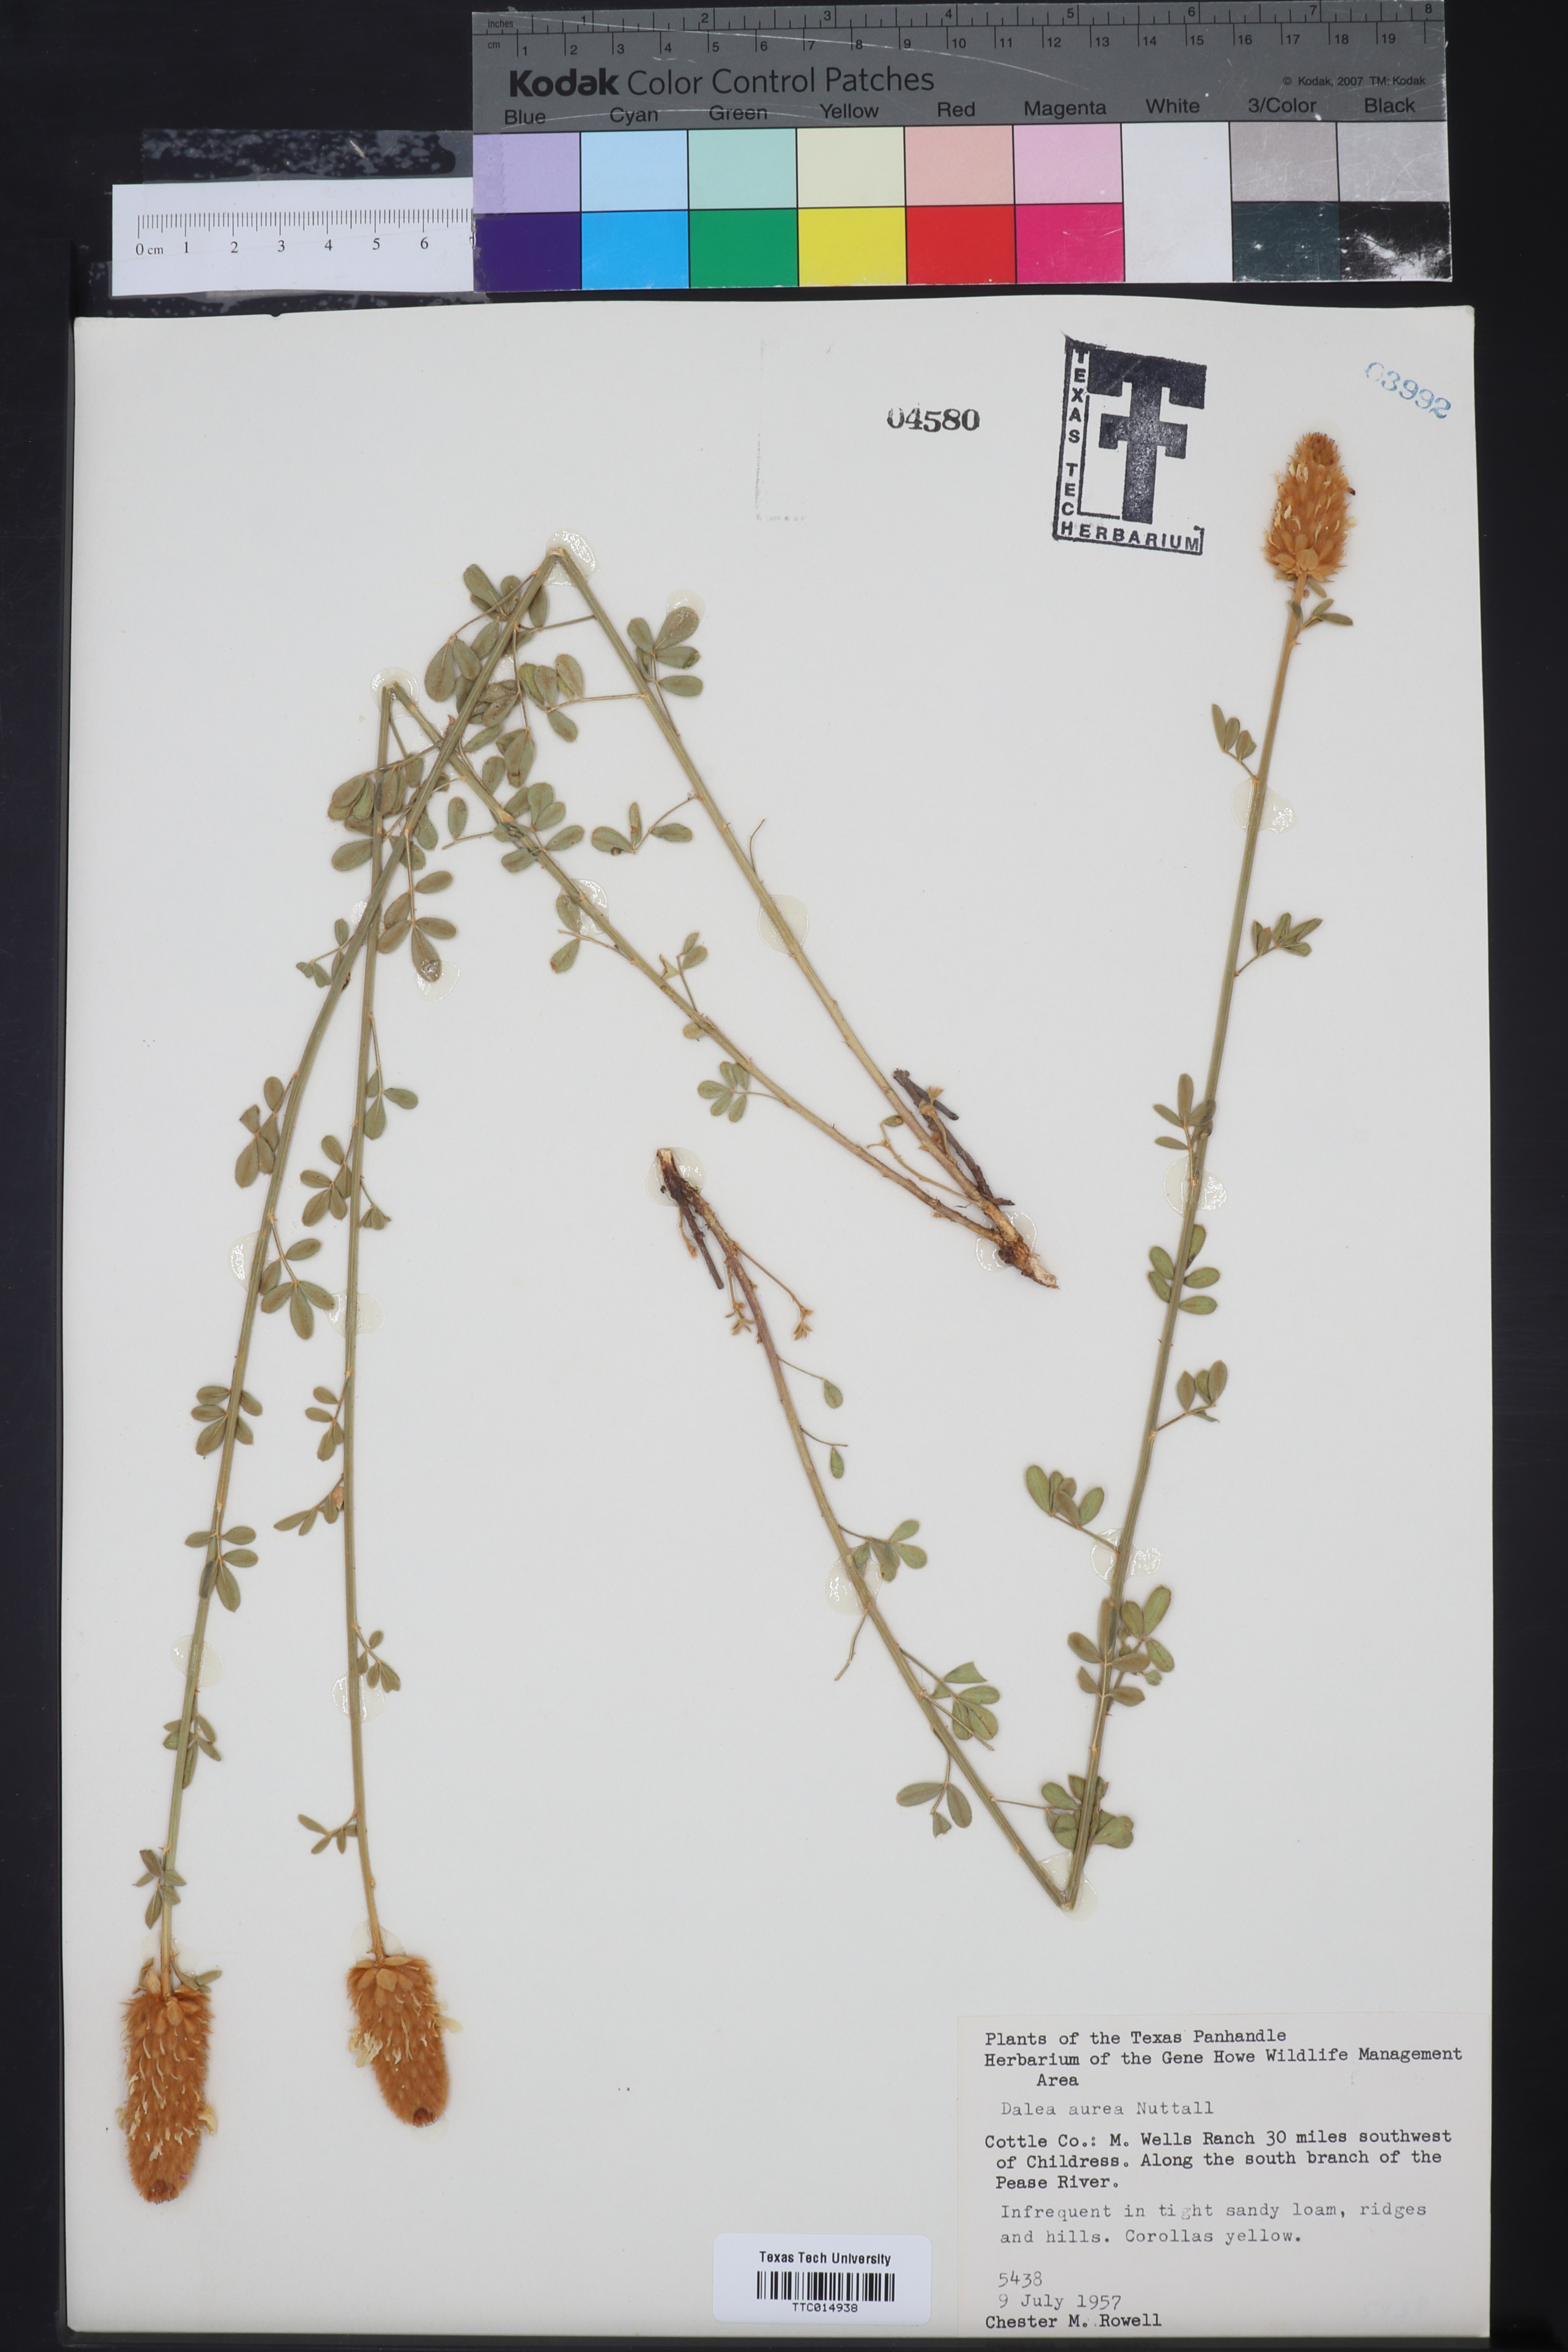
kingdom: Plantae
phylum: Tracheophyta
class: Magnoliopsida
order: Fabales
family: Fabaceae
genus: Dalea
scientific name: Dalea aurea
